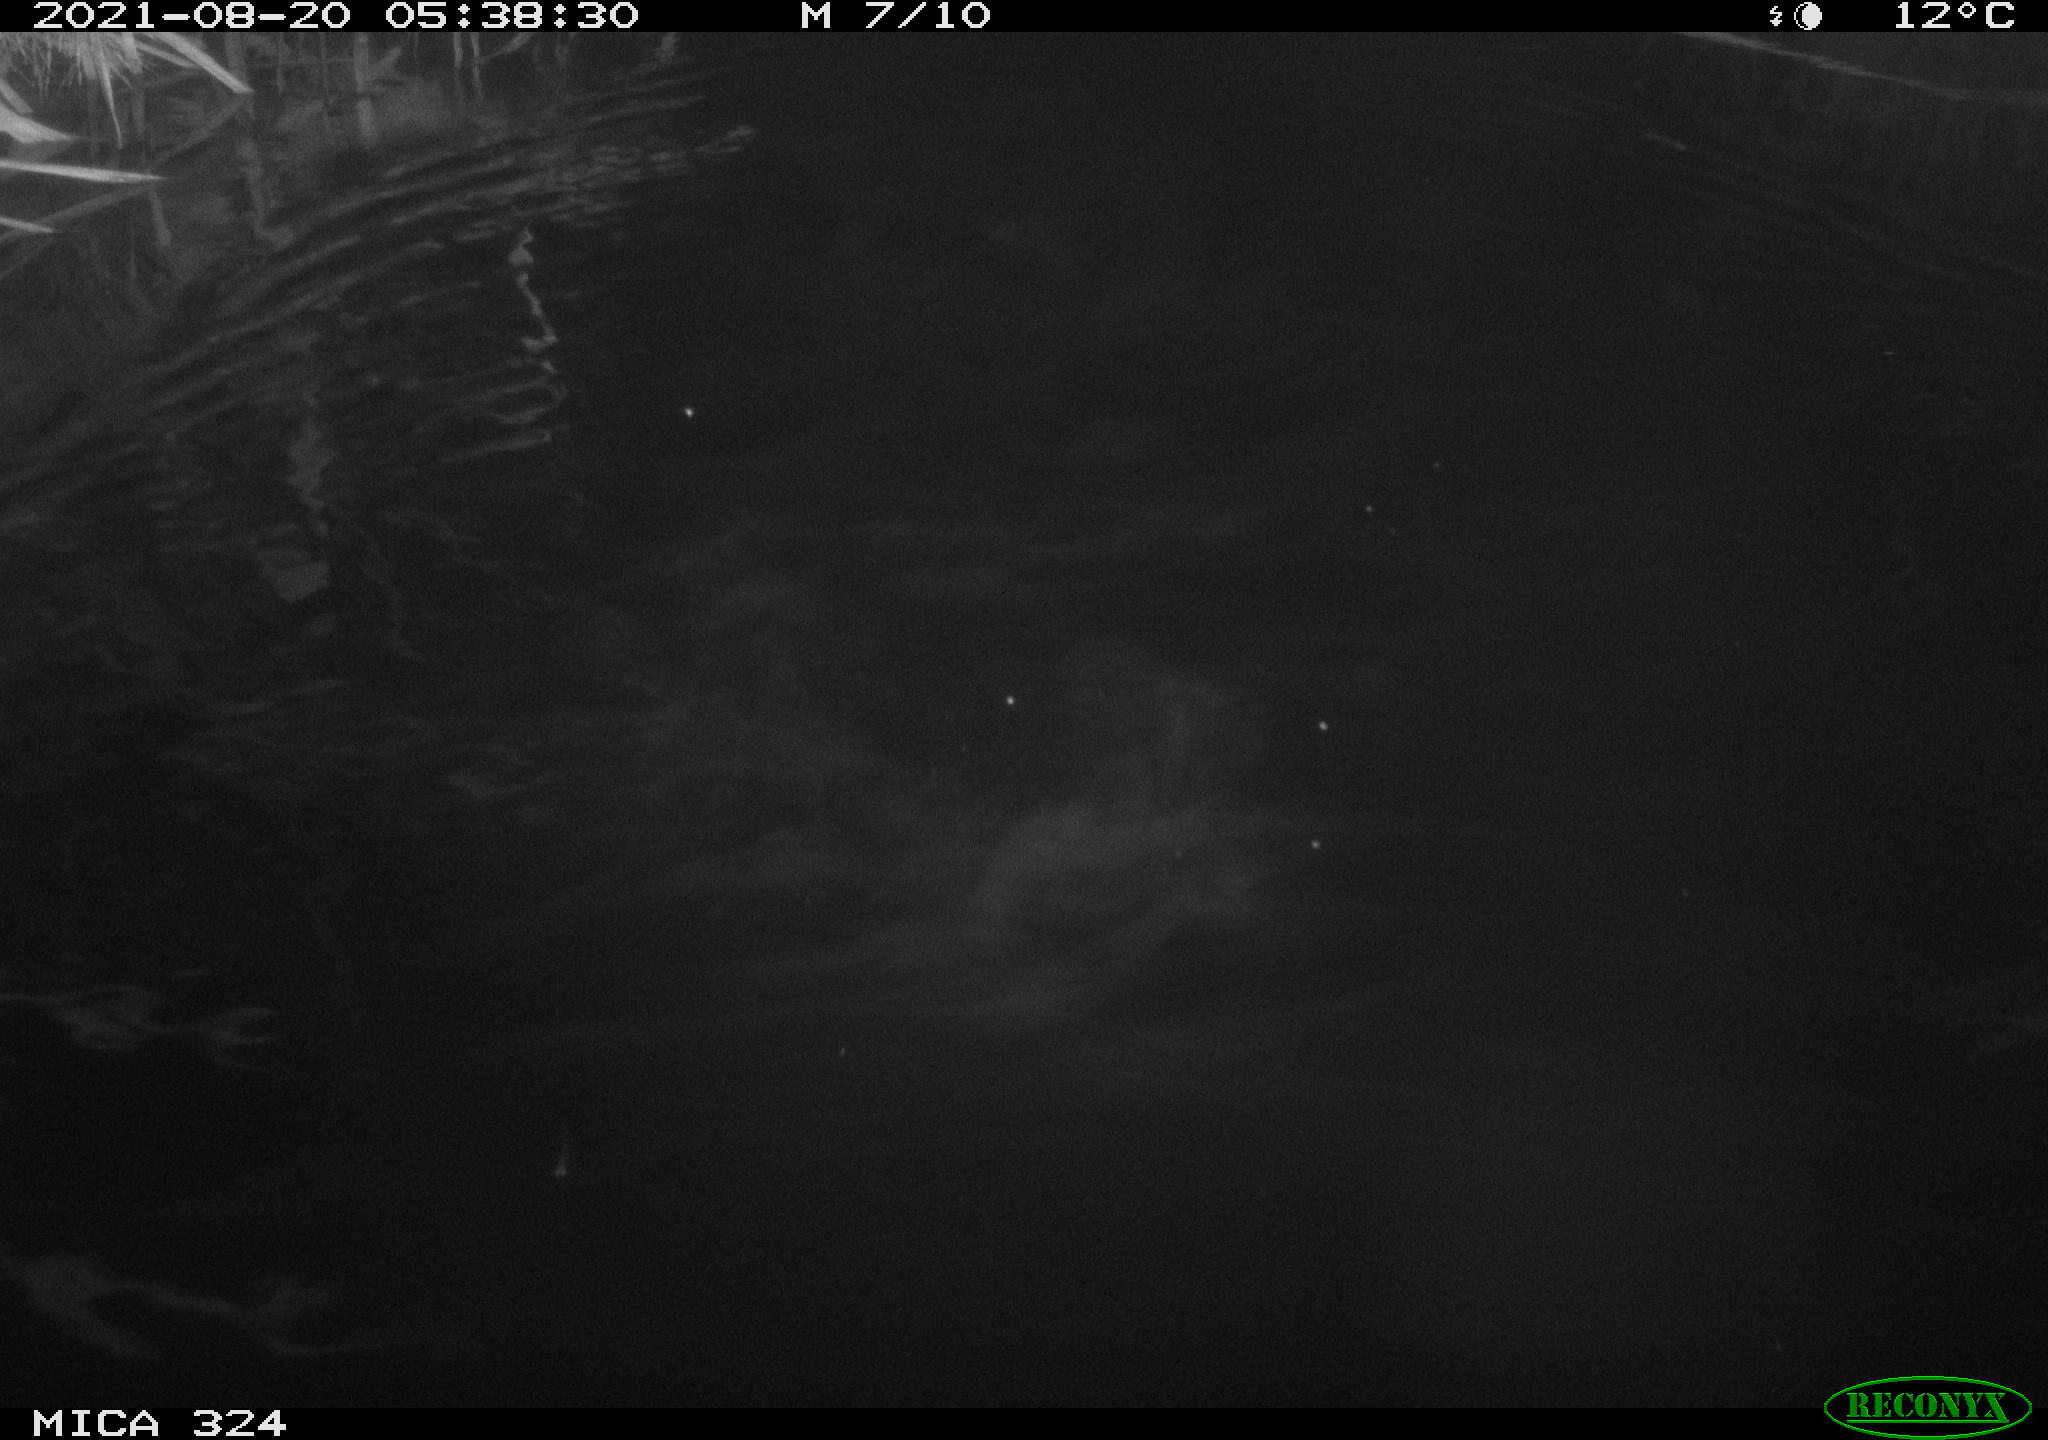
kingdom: Animalia
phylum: Chordata
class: Mammalia
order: Rodentia
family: Cricetidae
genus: Ondatra
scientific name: Ondatra zibethicus
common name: Muskrat
